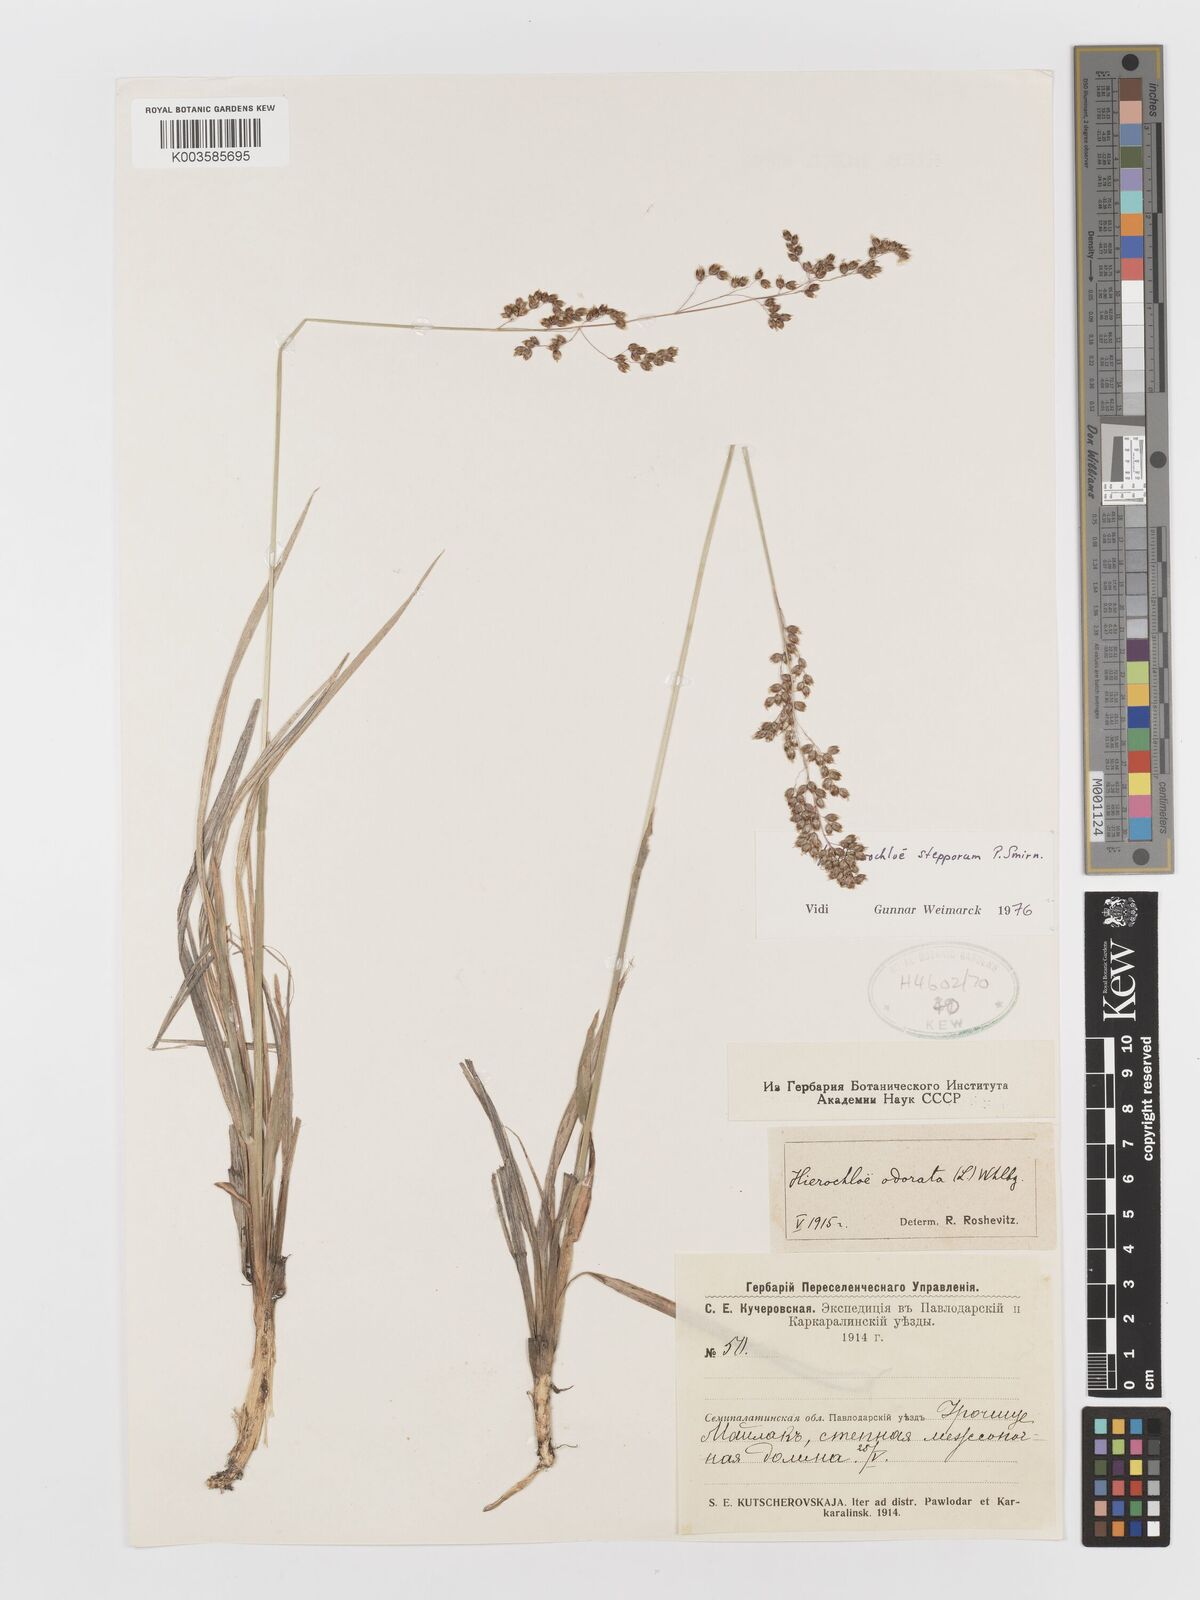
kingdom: Plantae
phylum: Tracheophyta
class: Liliopsida
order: Poales
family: Poaceae
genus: Anthoxanthum
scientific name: Anthoxanthum repens
